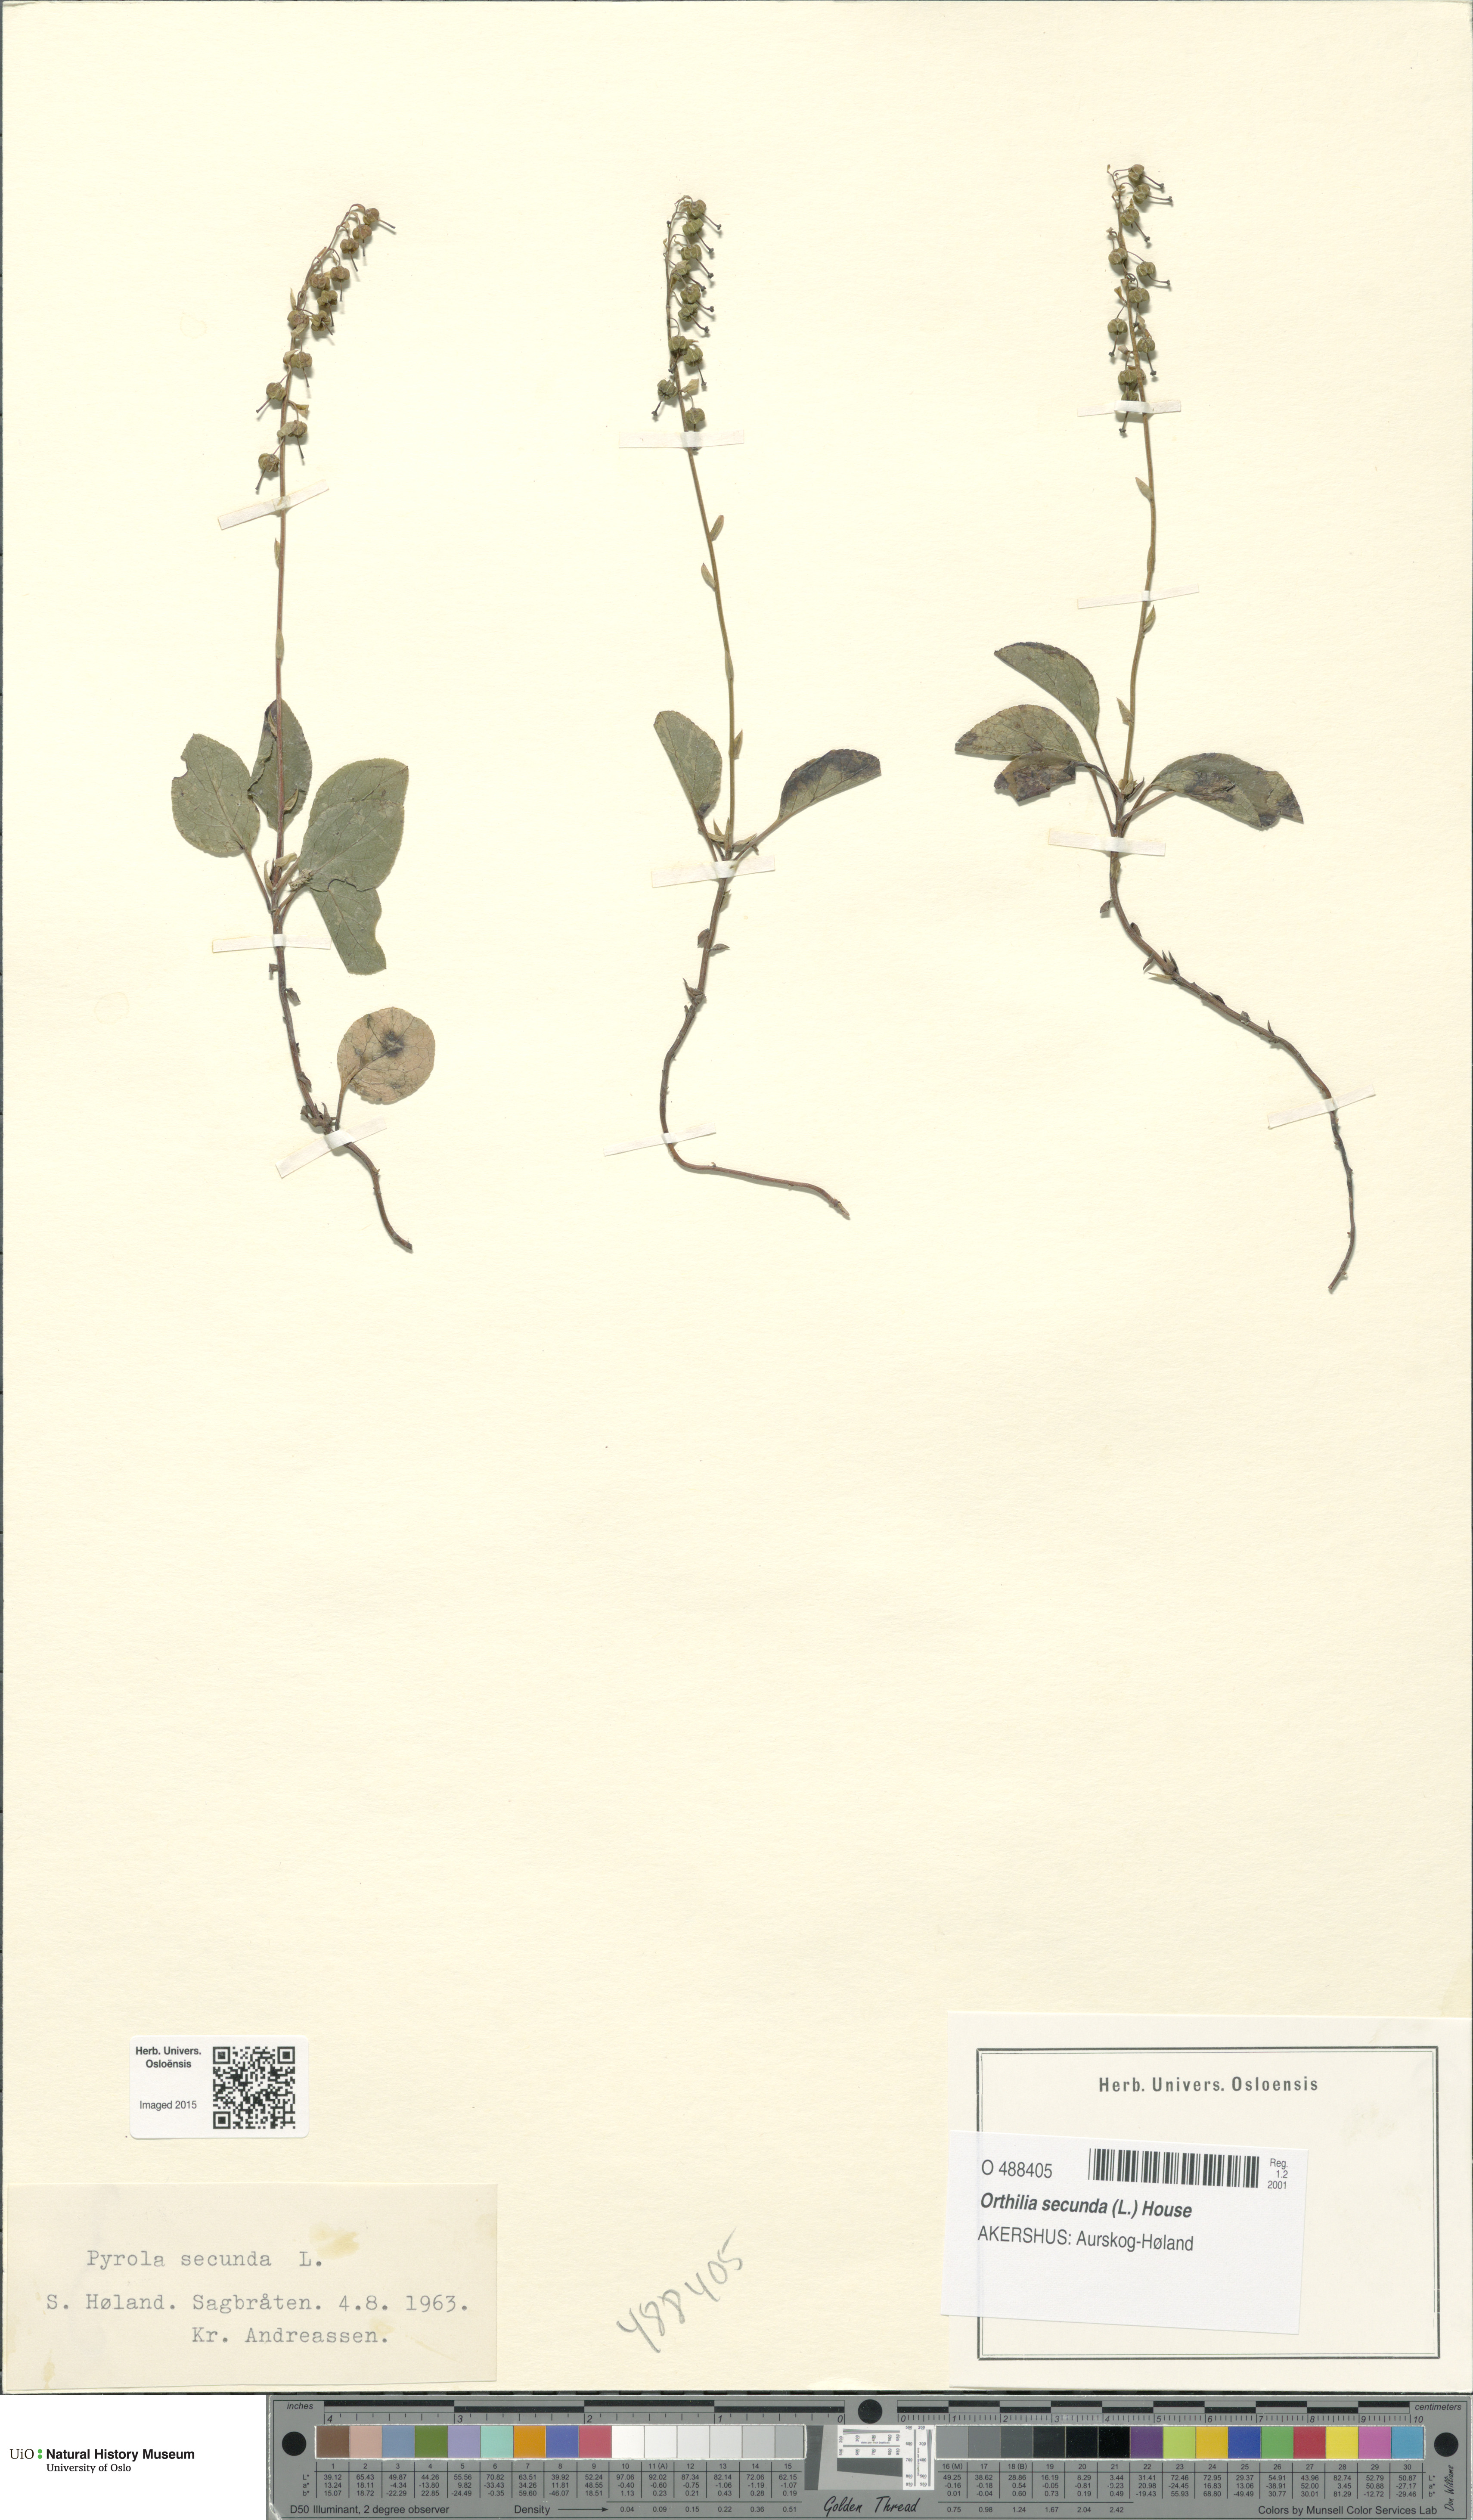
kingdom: Plantae
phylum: Tracheophyta
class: Magnoliopsida
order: Ericales
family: Ericaceae
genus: Orthilia
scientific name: Orthilia secunda
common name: One-sided orthilia
